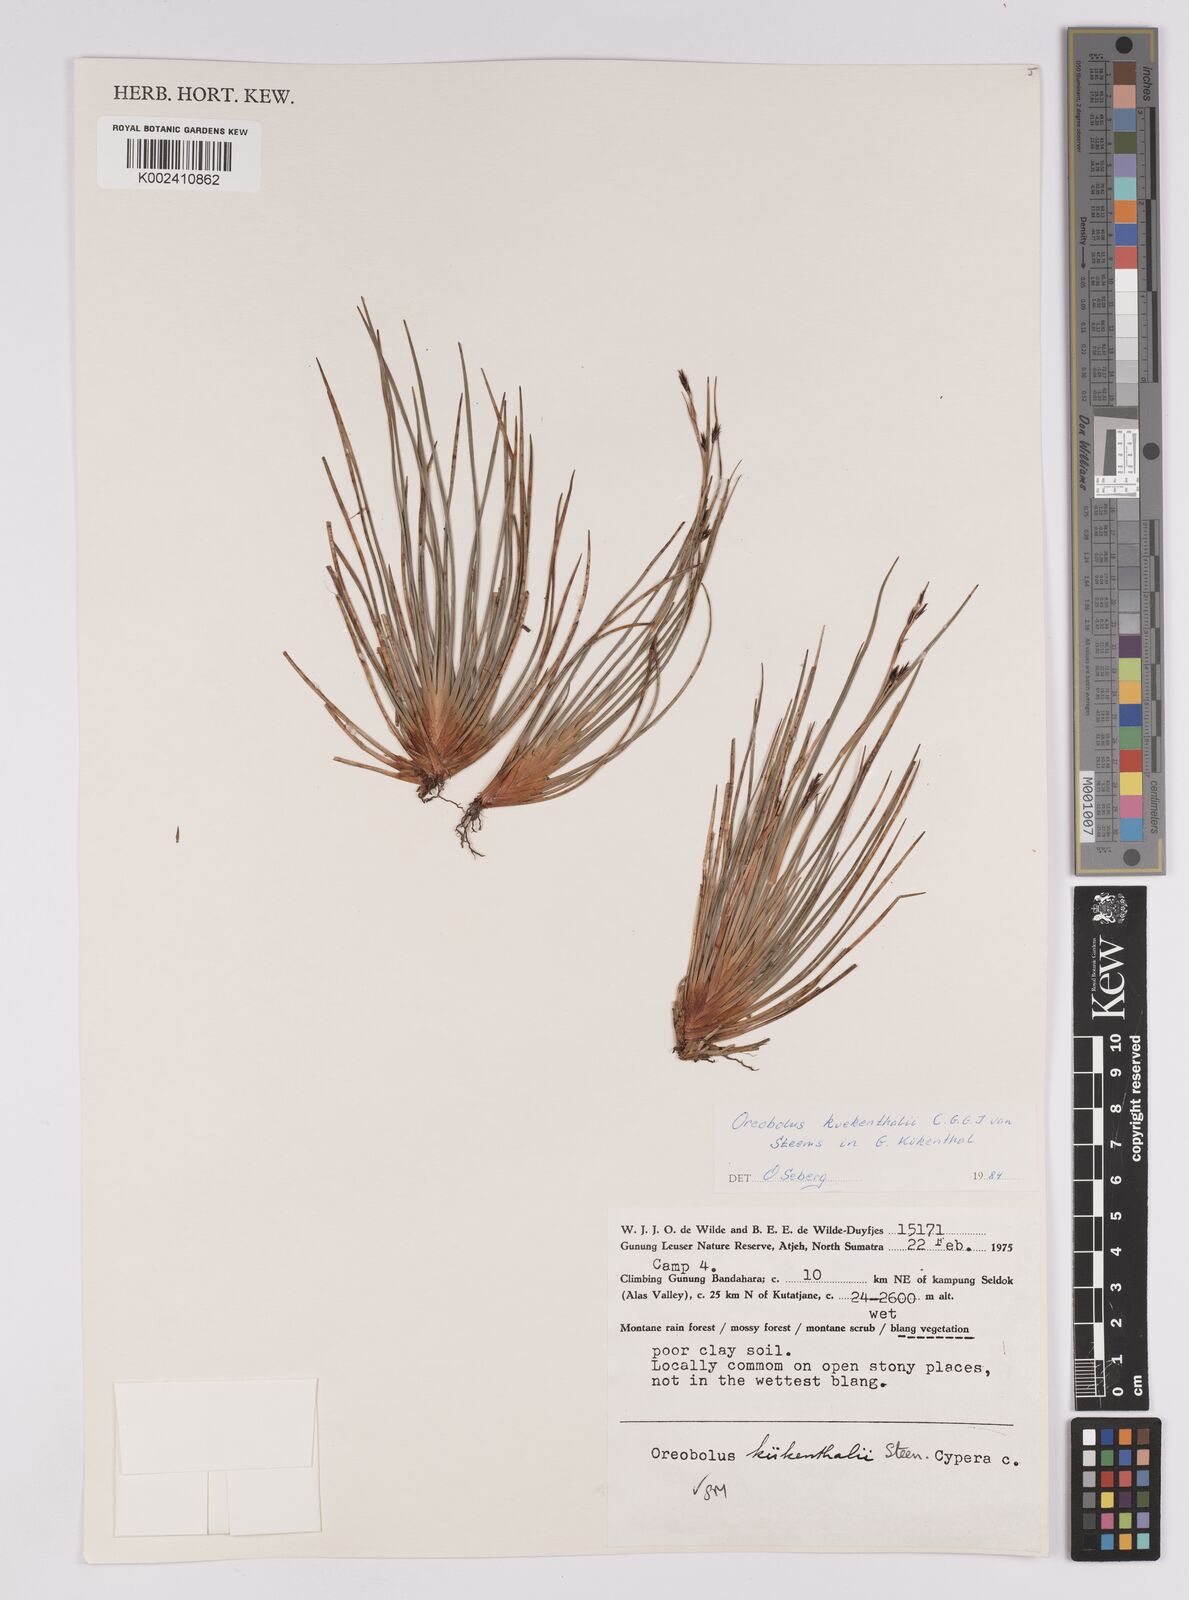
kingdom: Plantae
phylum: Tracheophyta
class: Liliopsida
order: Poales
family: Cyperaceae
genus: Oreobolus
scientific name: Oreobolus kuekenthalii
